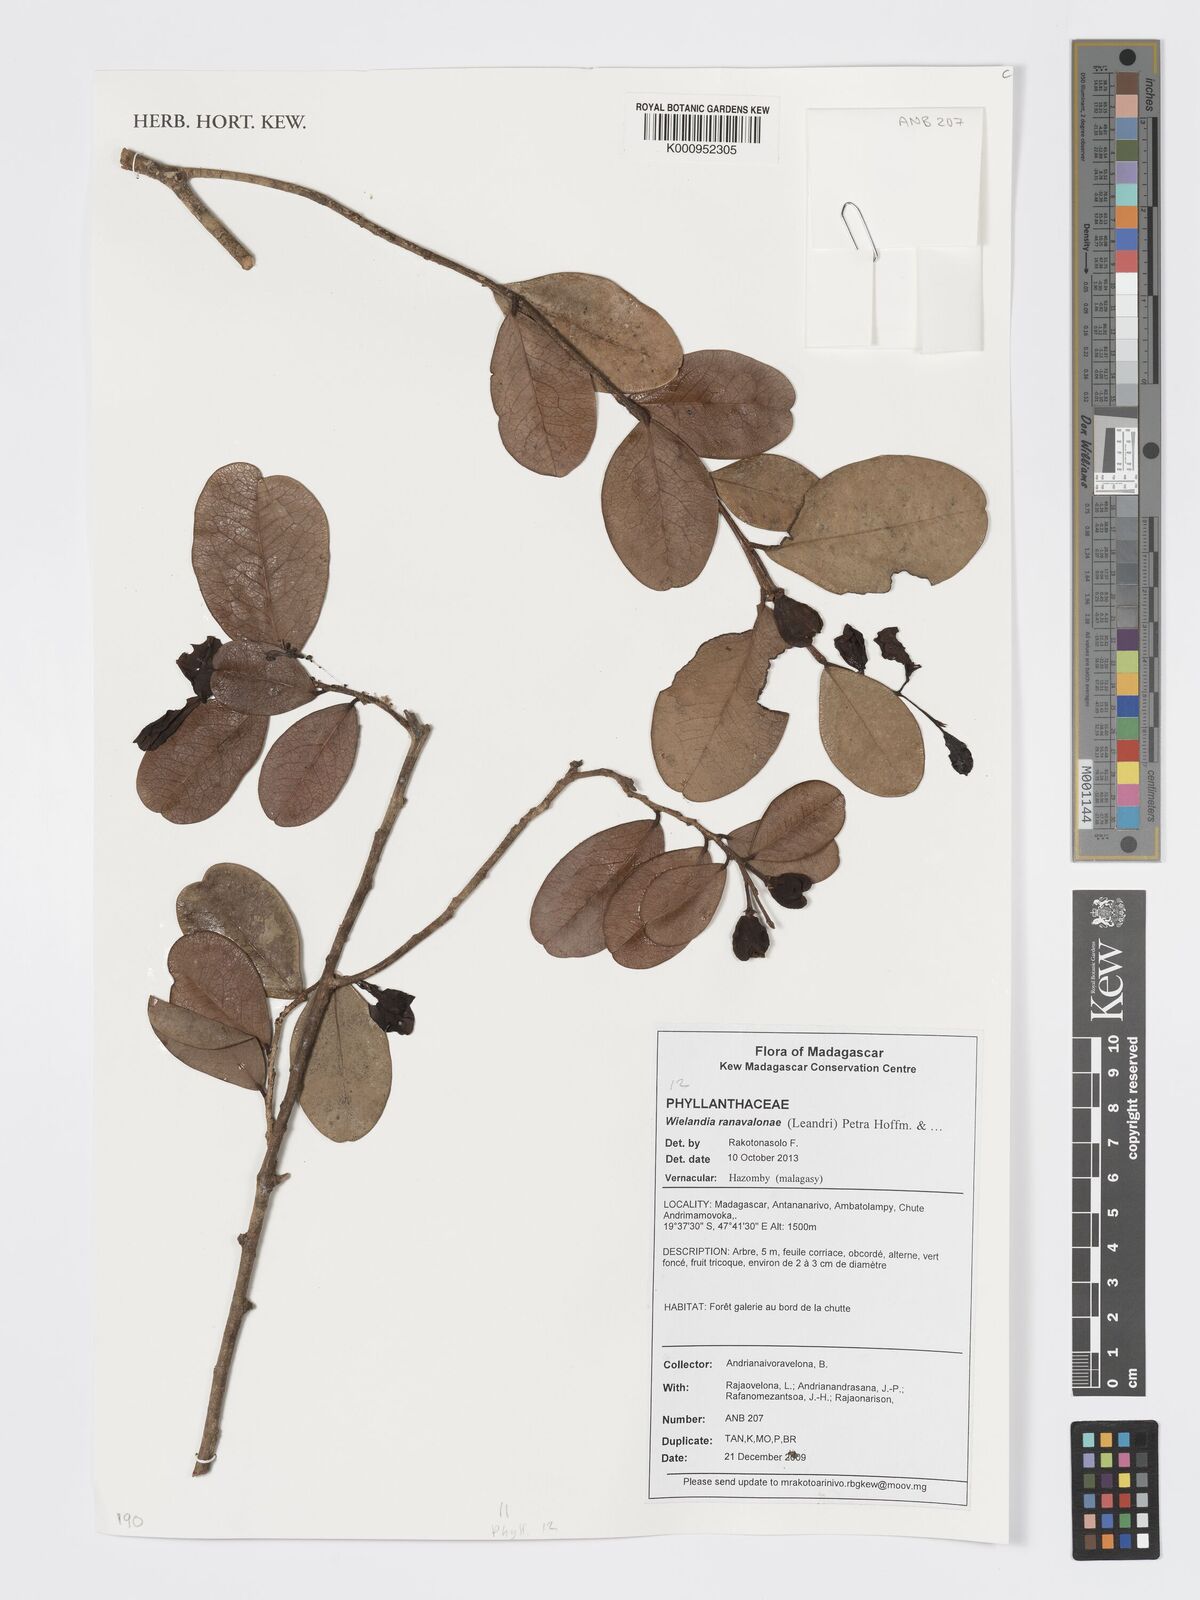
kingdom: Plantae
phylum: Tracheophyta
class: Magnoliopsida
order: Malpighiales
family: Phyllanthaceae
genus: Wielandia
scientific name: Wielandia ranavalonae
